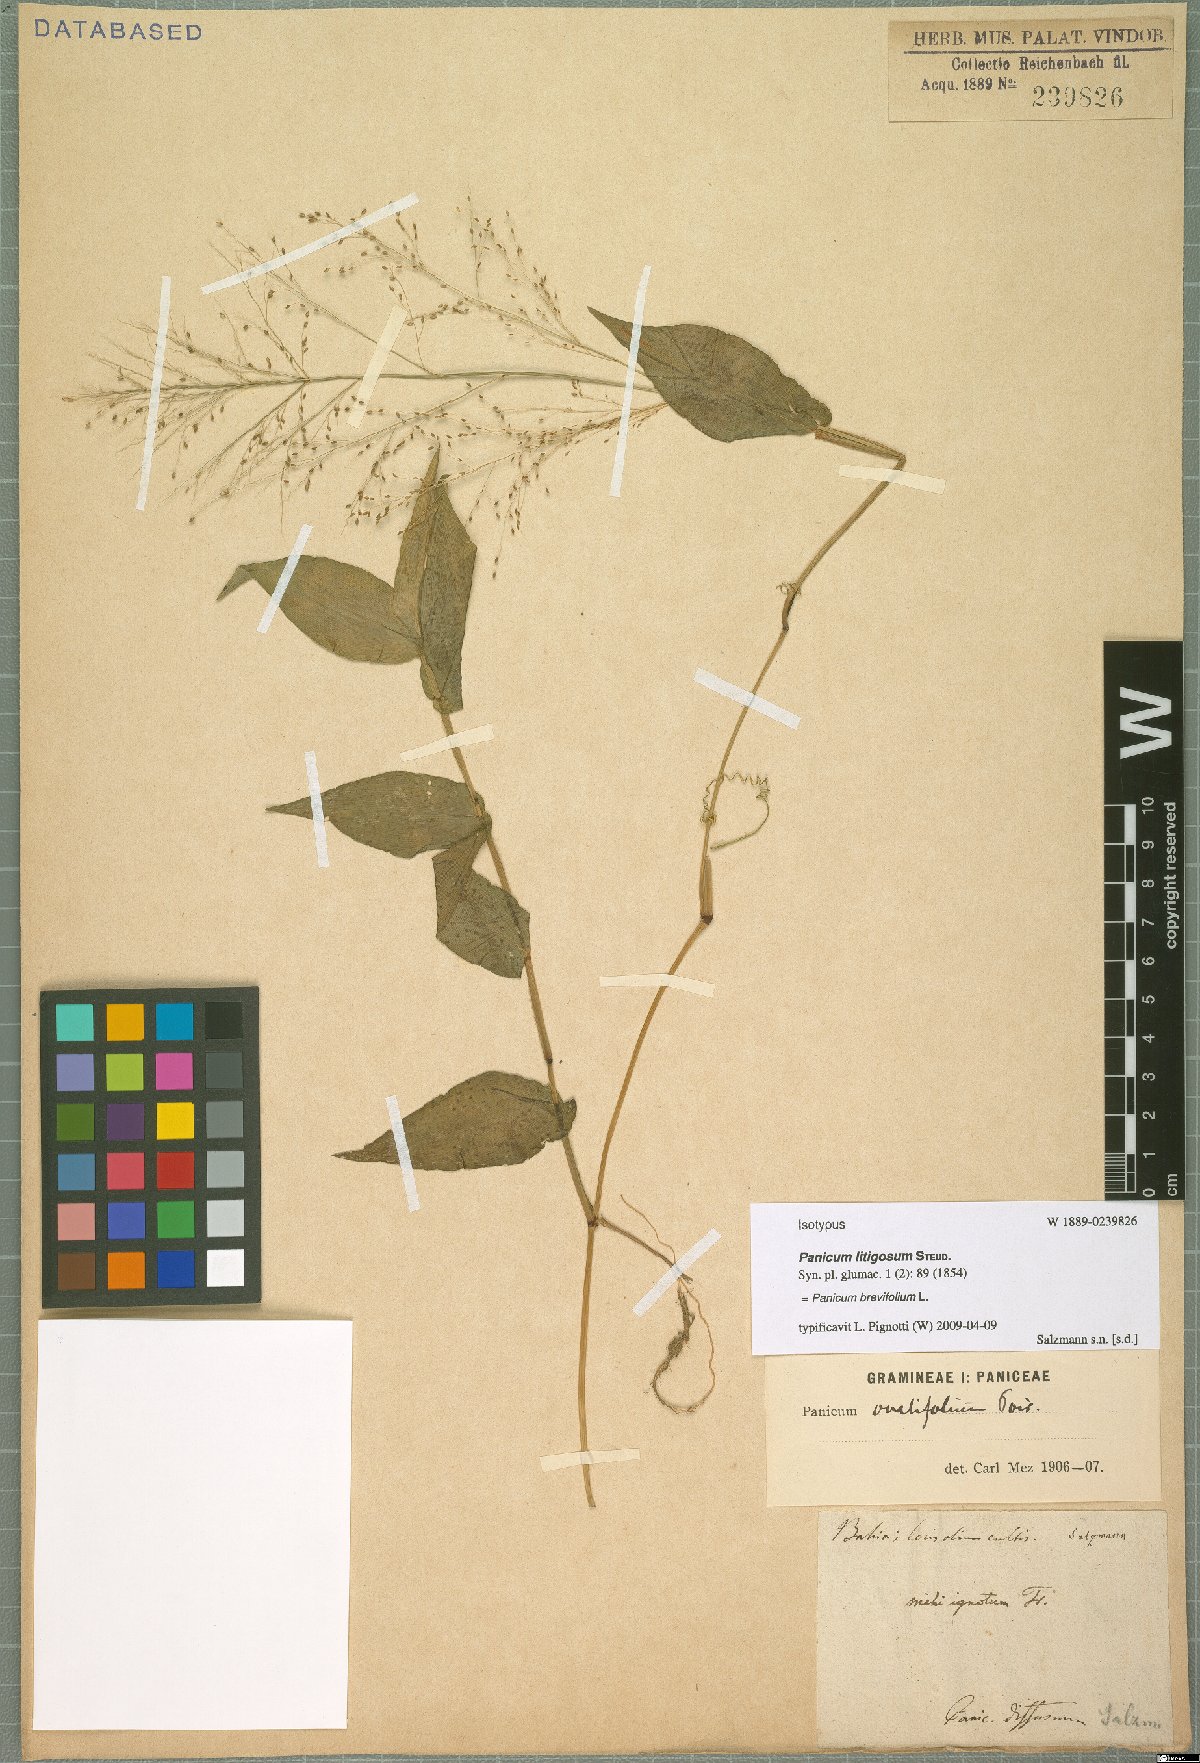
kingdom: Plantae
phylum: Tracheophyta
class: Liliopsida
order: Poales
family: Poaceae
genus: Panicum
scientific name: Panicum brevifolium
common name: Shortleaf panic grass
